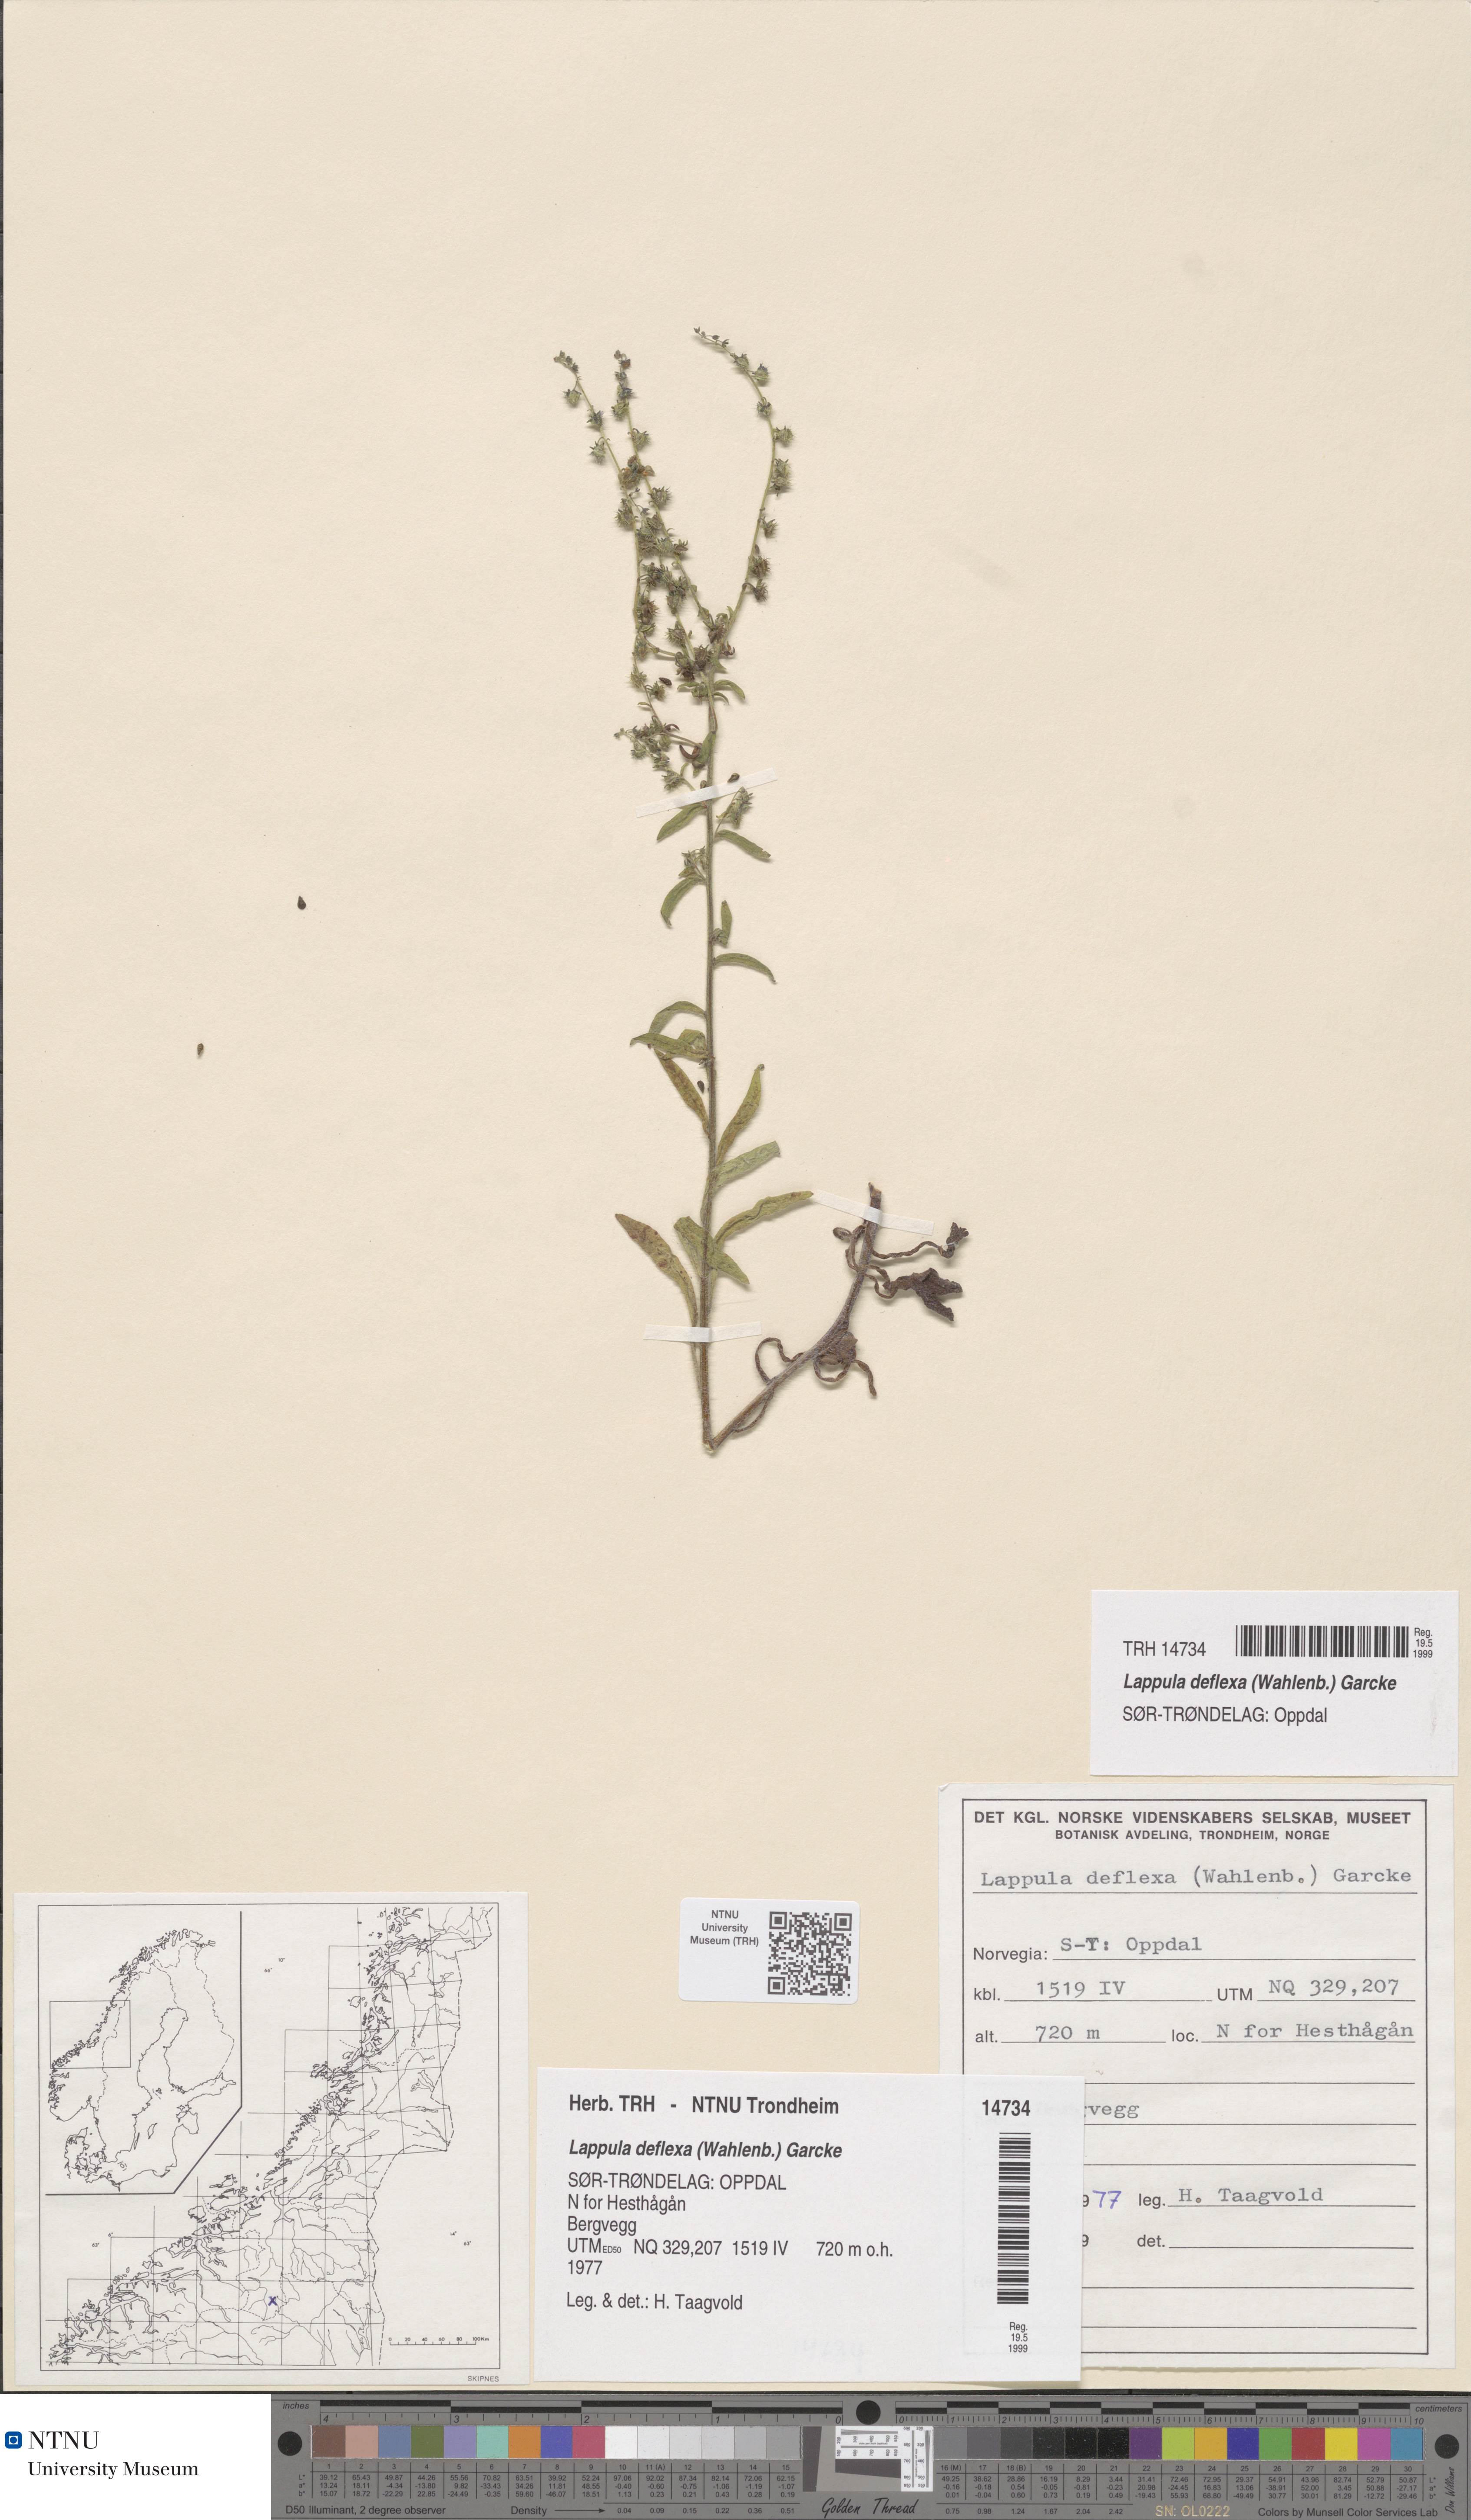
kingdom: Plantae
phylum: Tracheophyta
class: Magnoliopsida
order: Boraginales
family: Boraginaceae
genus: Hackelia
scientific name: Hackelia deflexa
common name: Nodding stickseed
